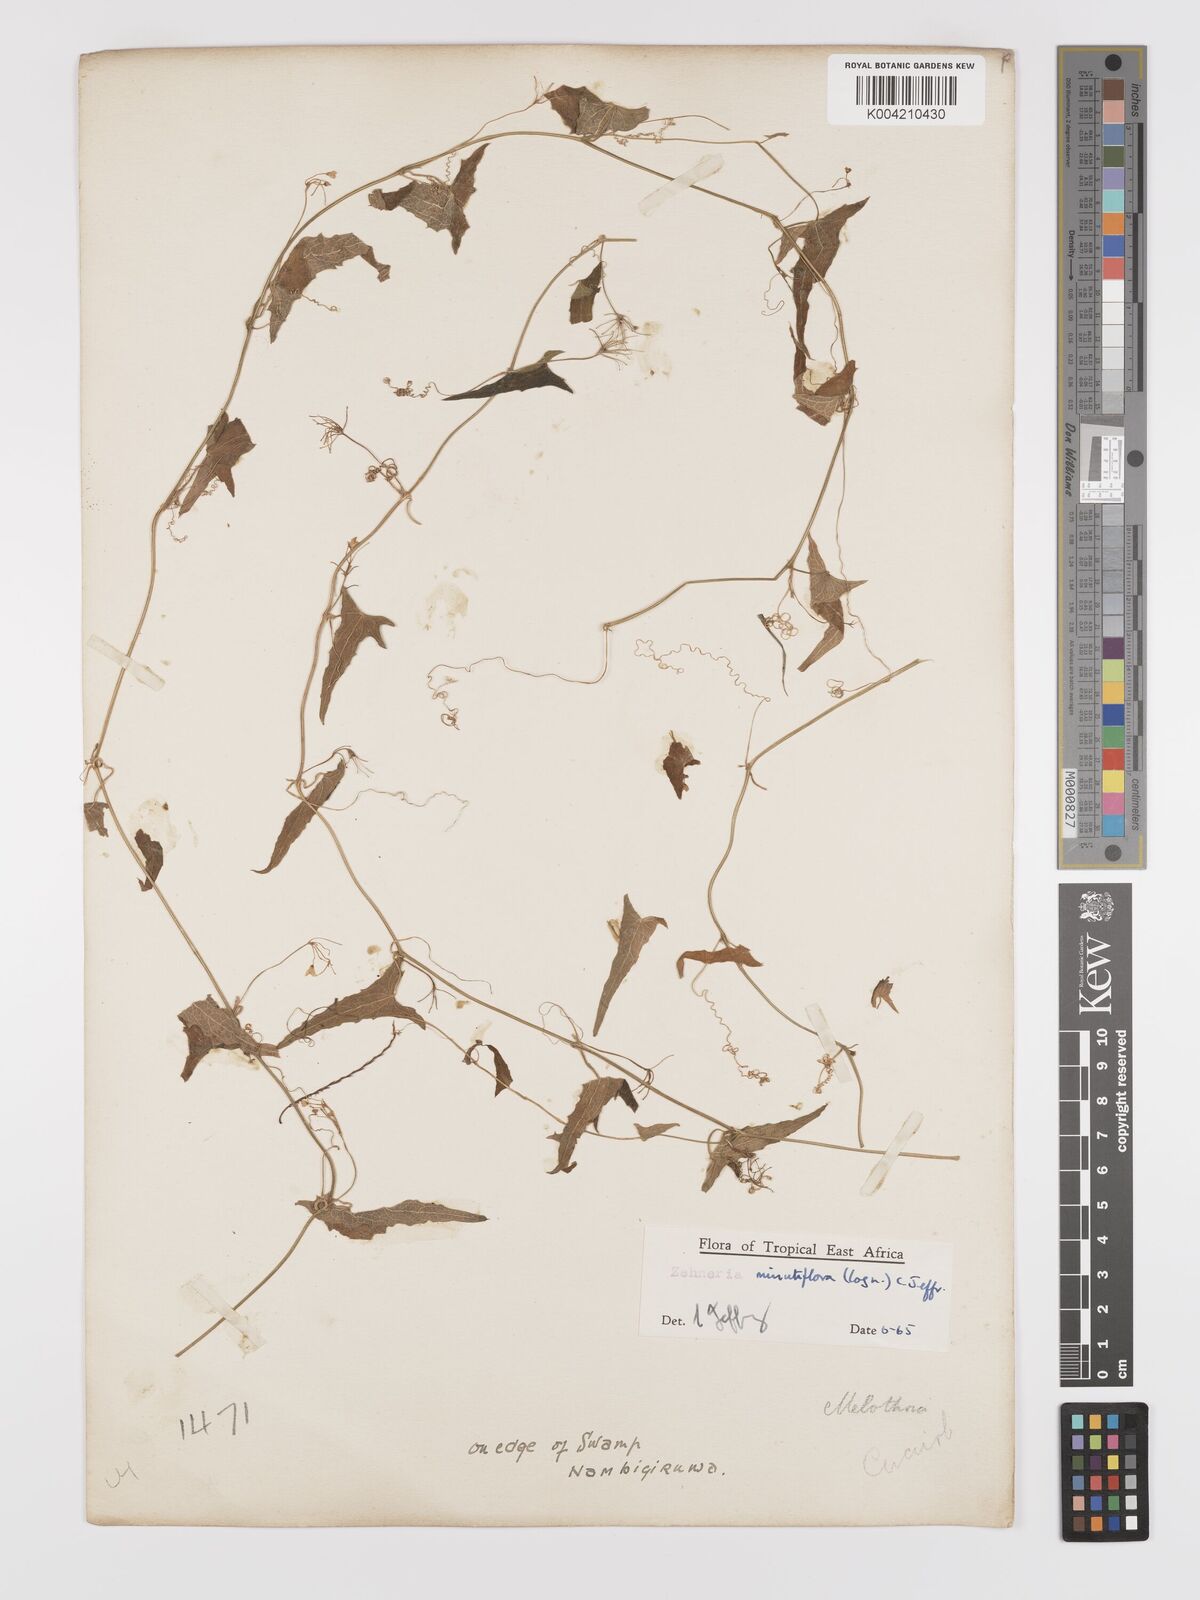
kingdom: Plantae
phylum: Tracheophyta
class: Magnoliopsida
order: Cucurbitales
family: Cucurbitaceae
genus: Zehneria
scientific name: Zehneria minutiflora
